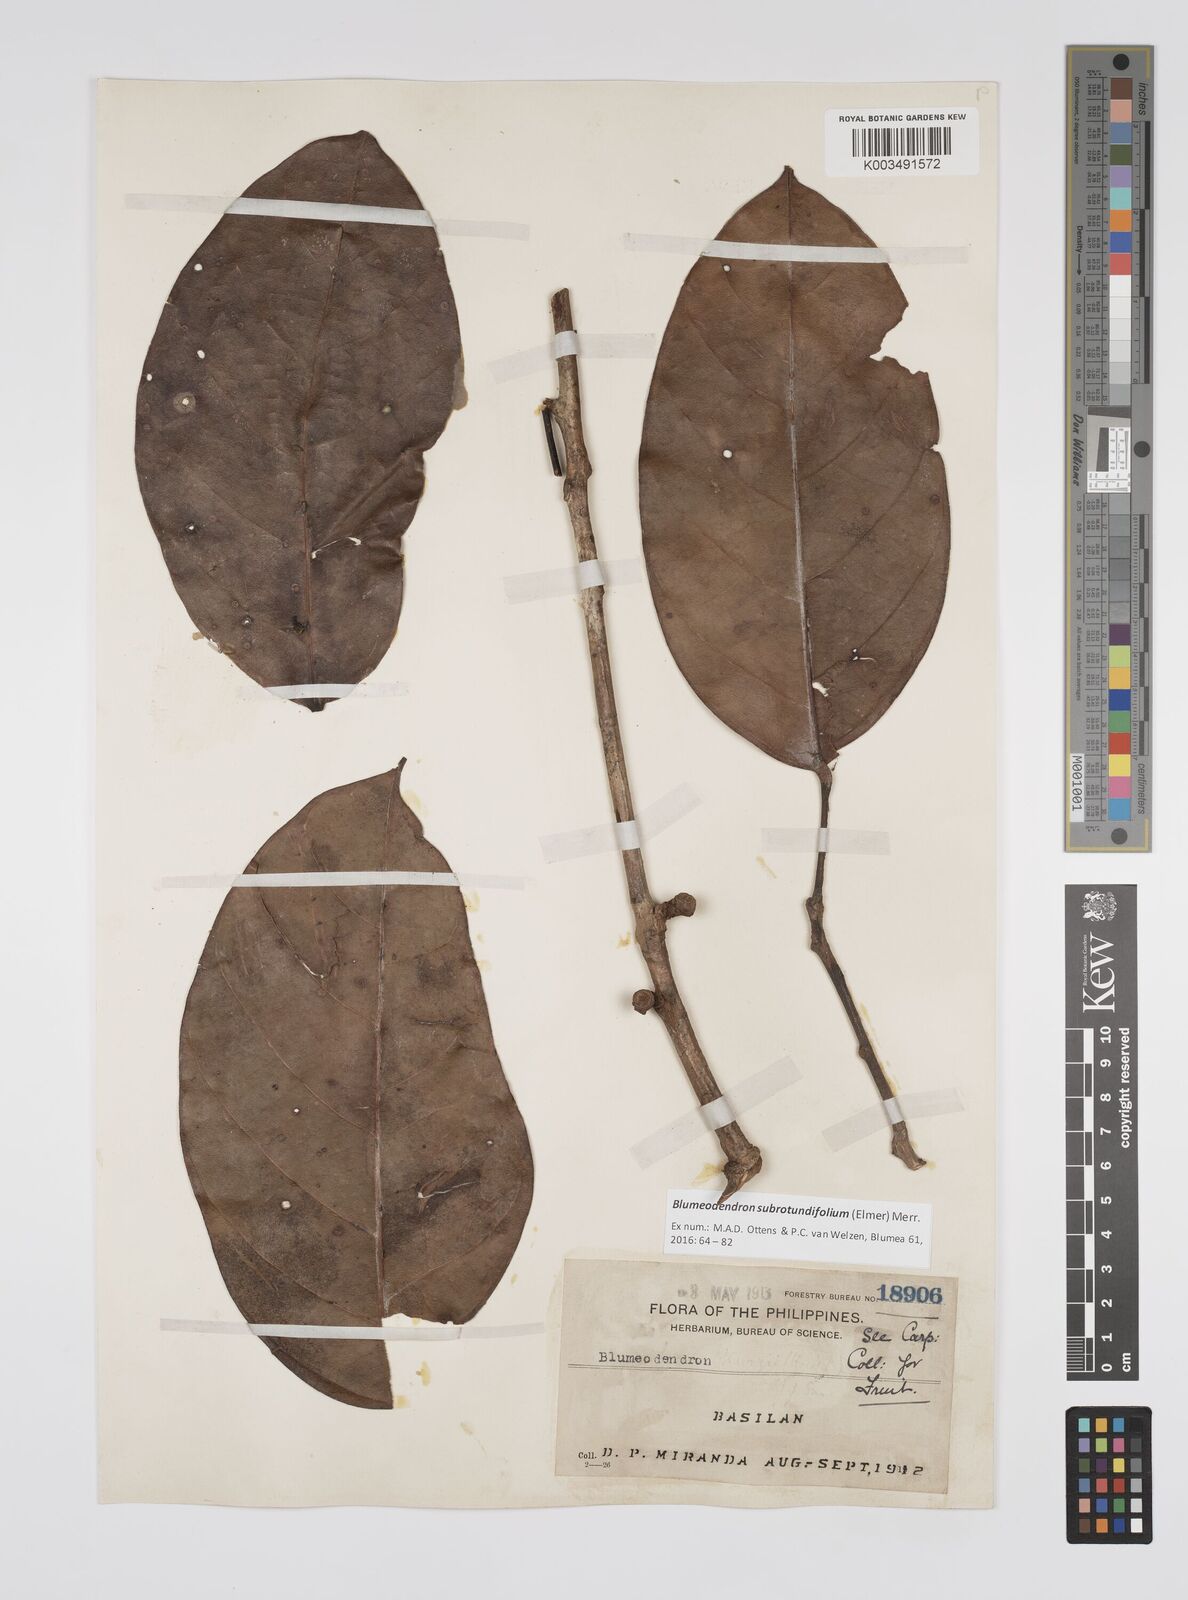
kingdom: Plantae
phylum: Tracheophyta
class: Magnoliopsida
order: Malpighiales
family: Euphorbiaceae
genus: Blumeodendron
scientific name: Blumeodendron subrotundifolium
